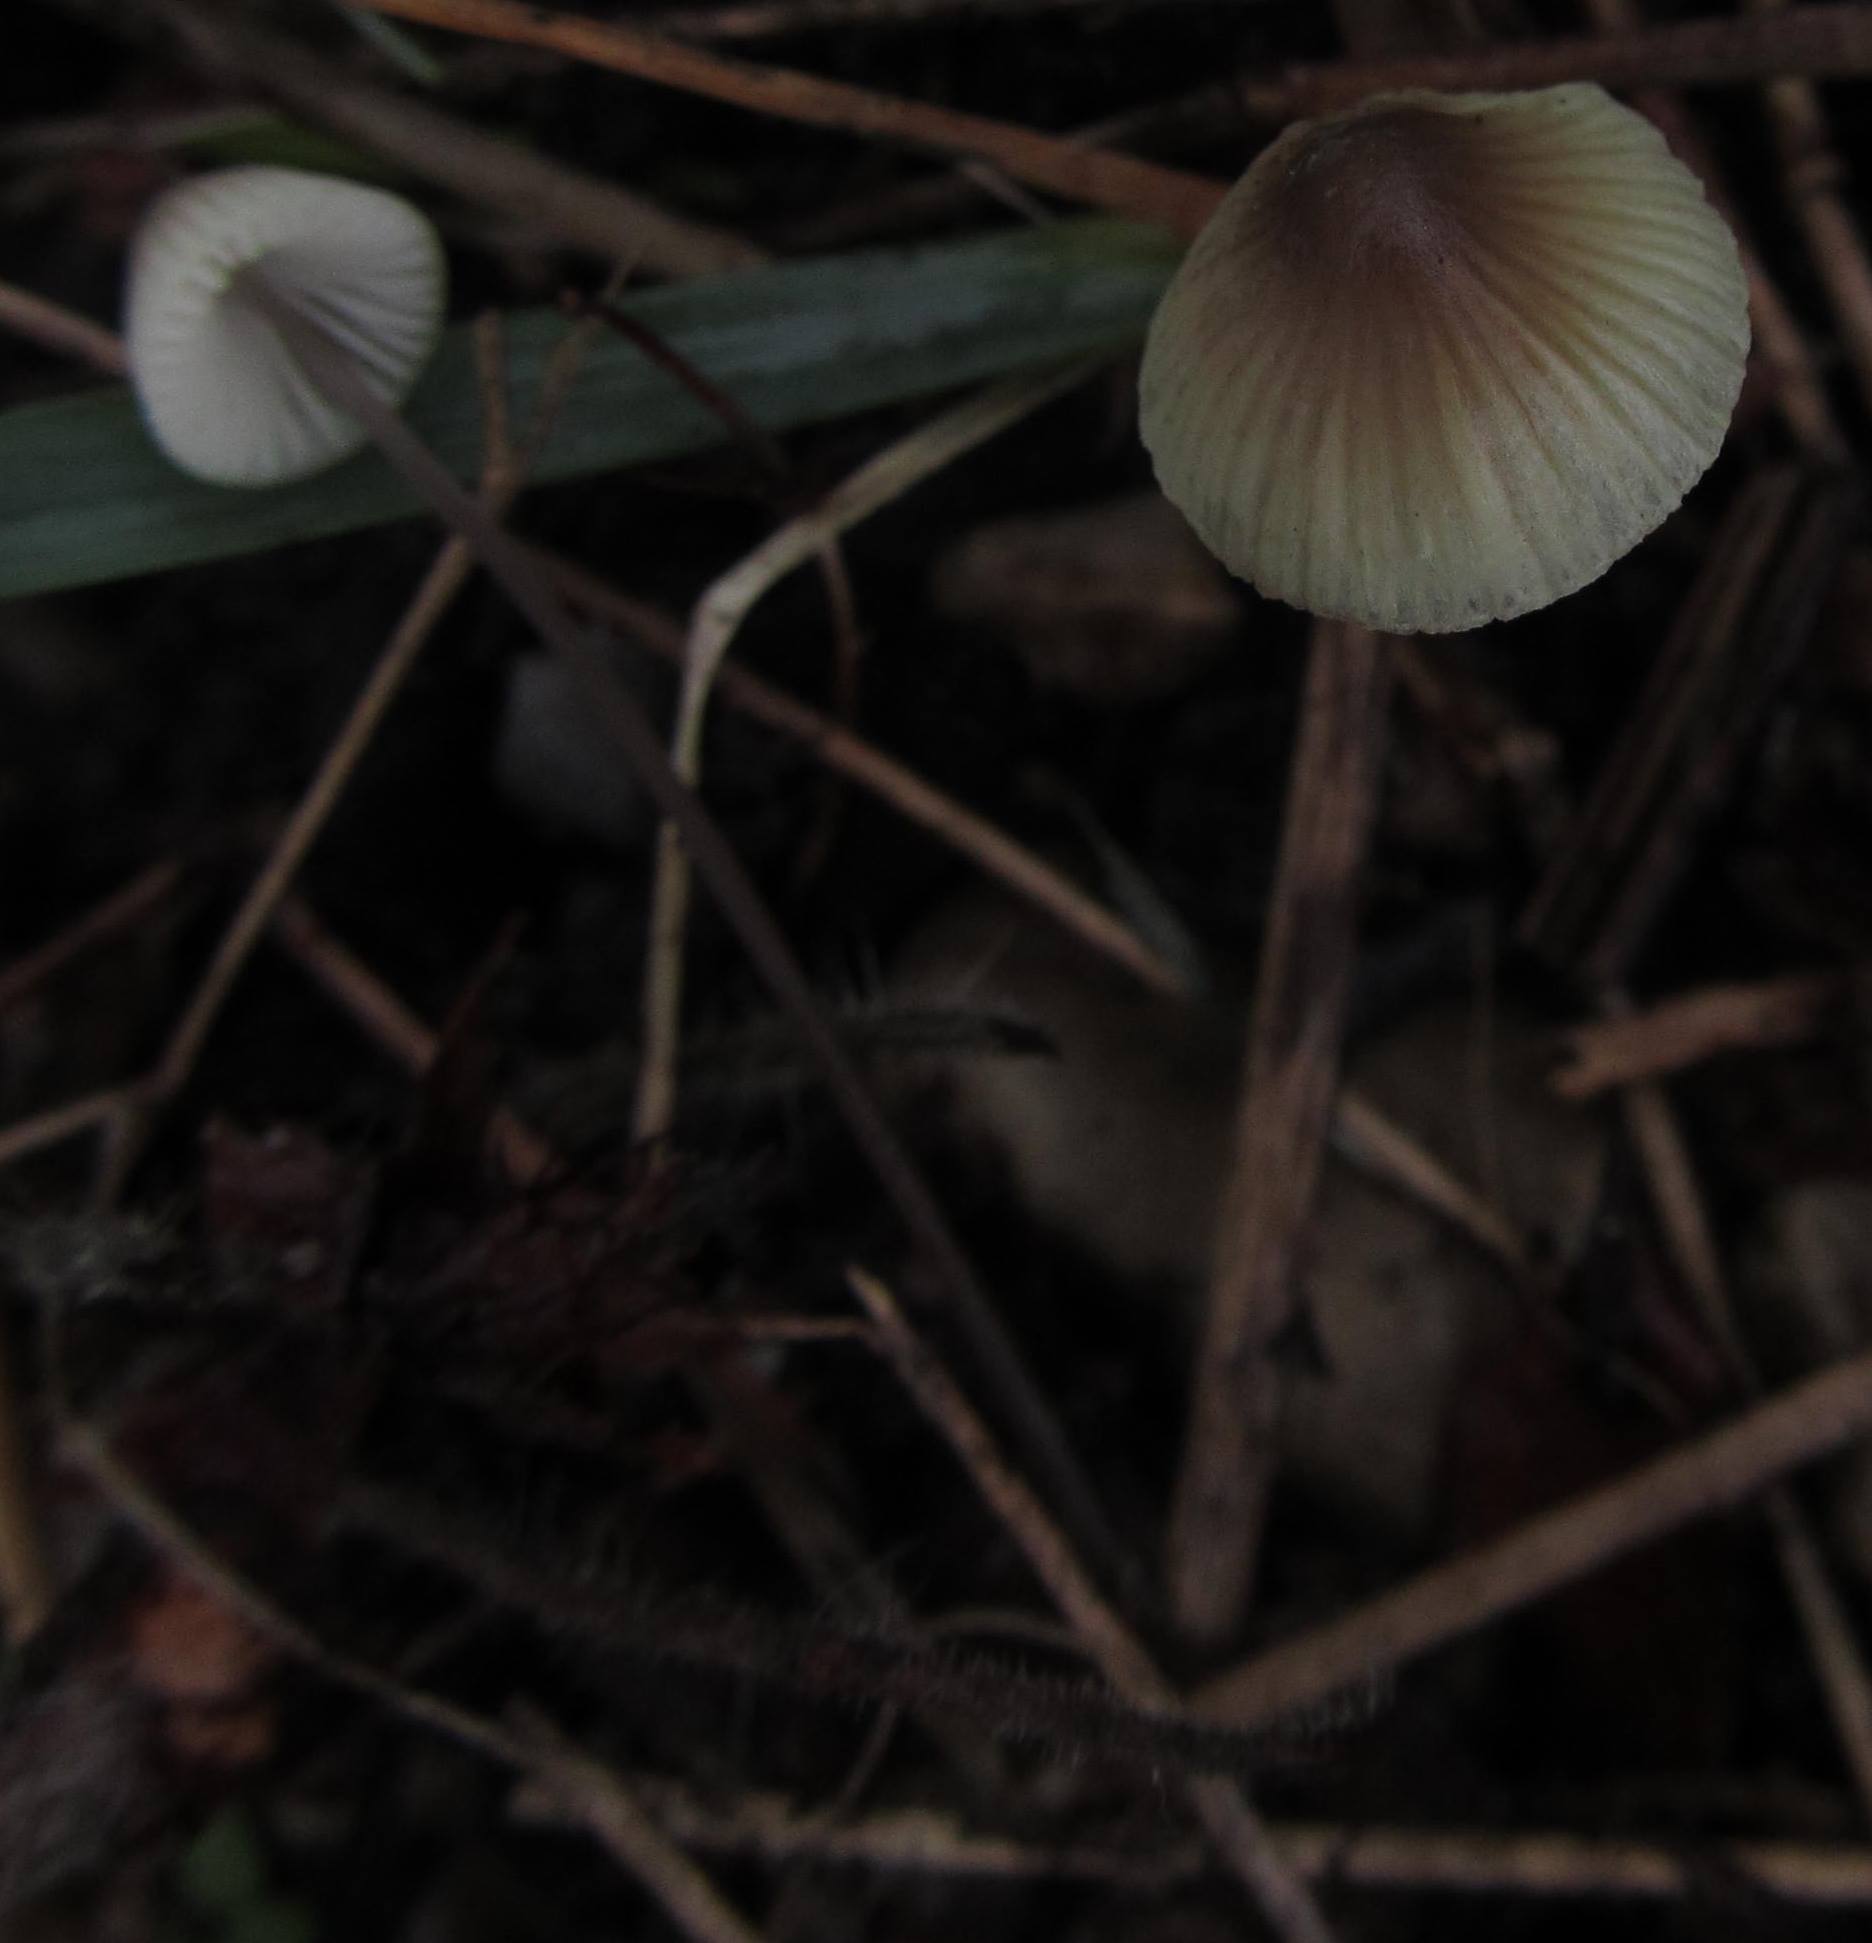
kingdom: Fungi
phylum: Basidiomycota
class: Agaricomycetes
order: Agaricales
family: Mycenaceae
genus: Mycena
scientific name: Mycena arcangeliana
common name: oliven-huesvamp
